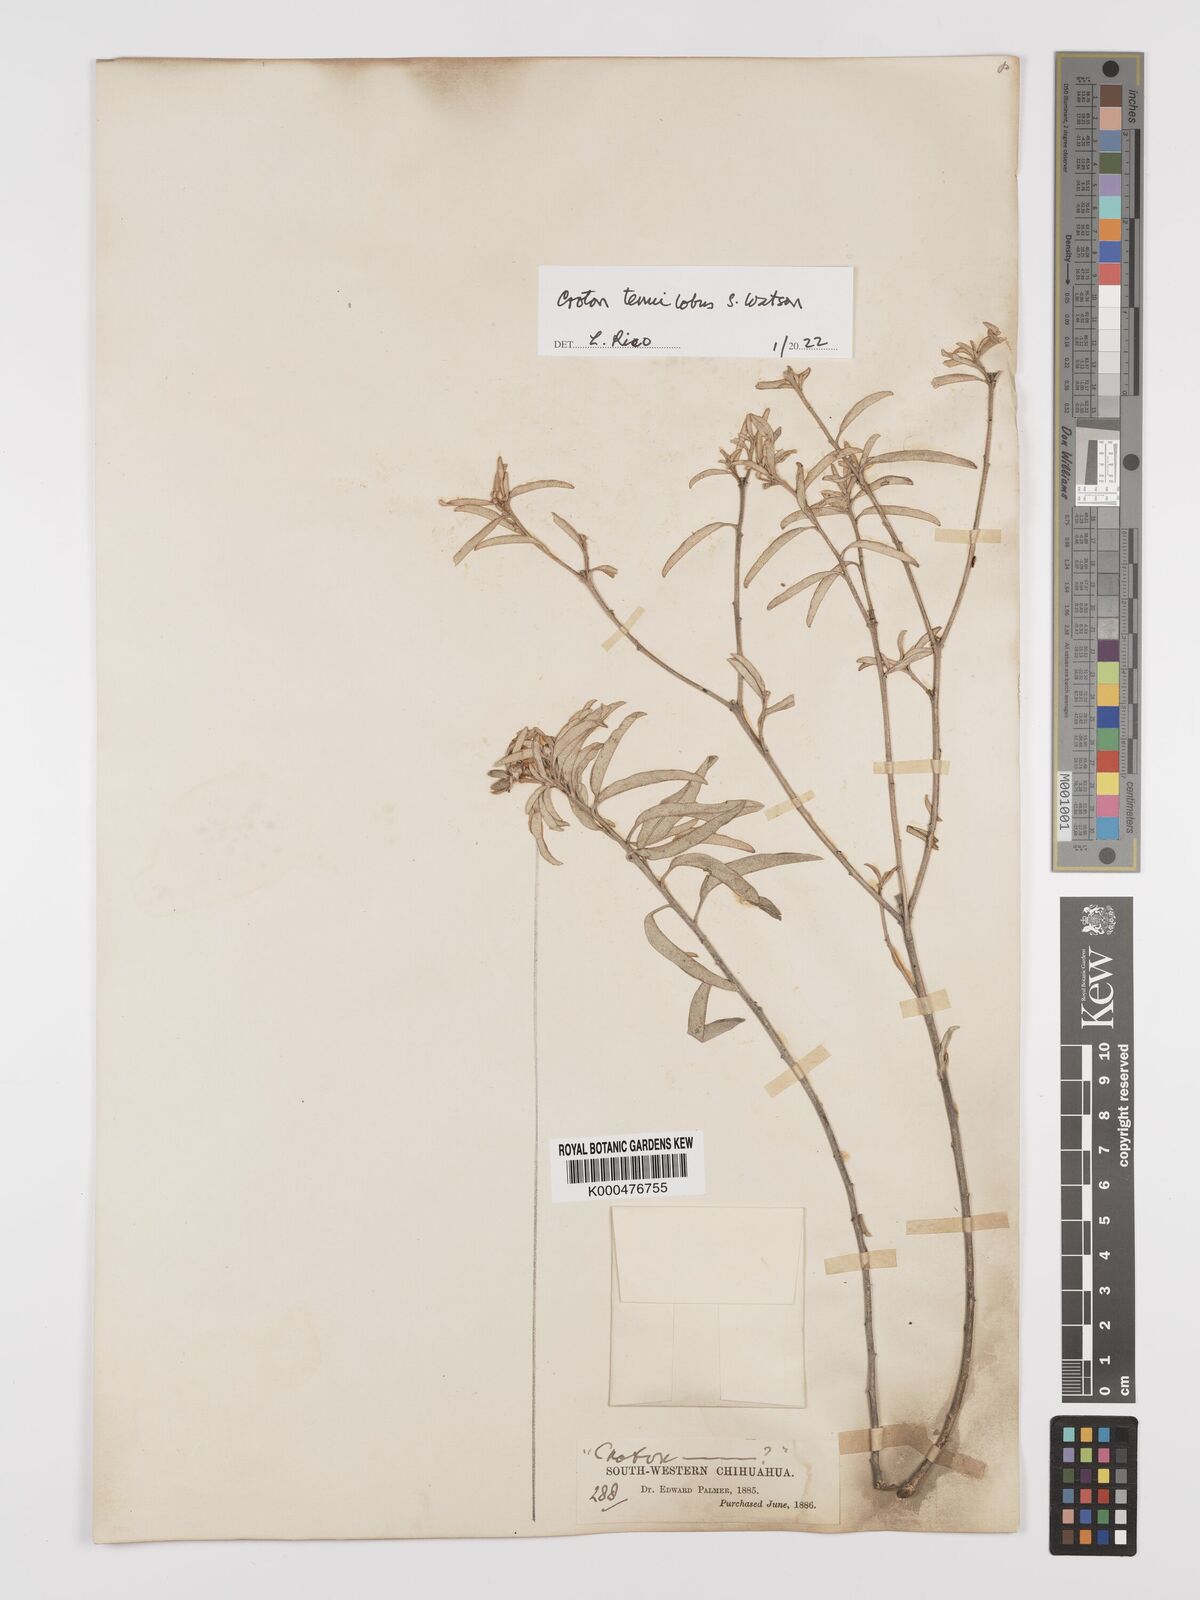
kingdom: Plantae
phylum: Tracheophyta
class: Magnoliopsida
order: Malpighiales
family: Euphorbiaceae
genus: Croton
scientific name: Croton tenuilobus
